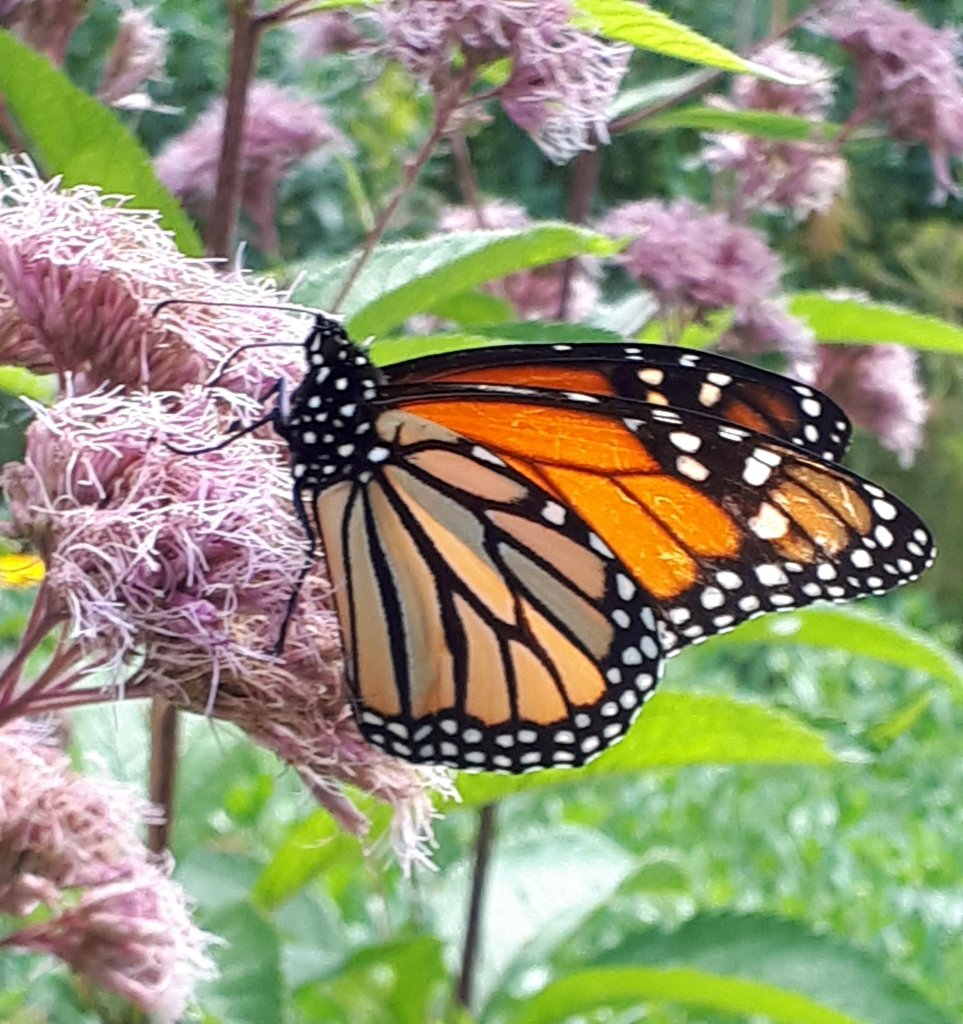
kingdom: Animalia
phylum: Arthropoda
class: Insecta
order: Lepidoptera
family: Nymphalidae
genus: Danaus
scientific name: Danaus plexippus
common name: Monarch
